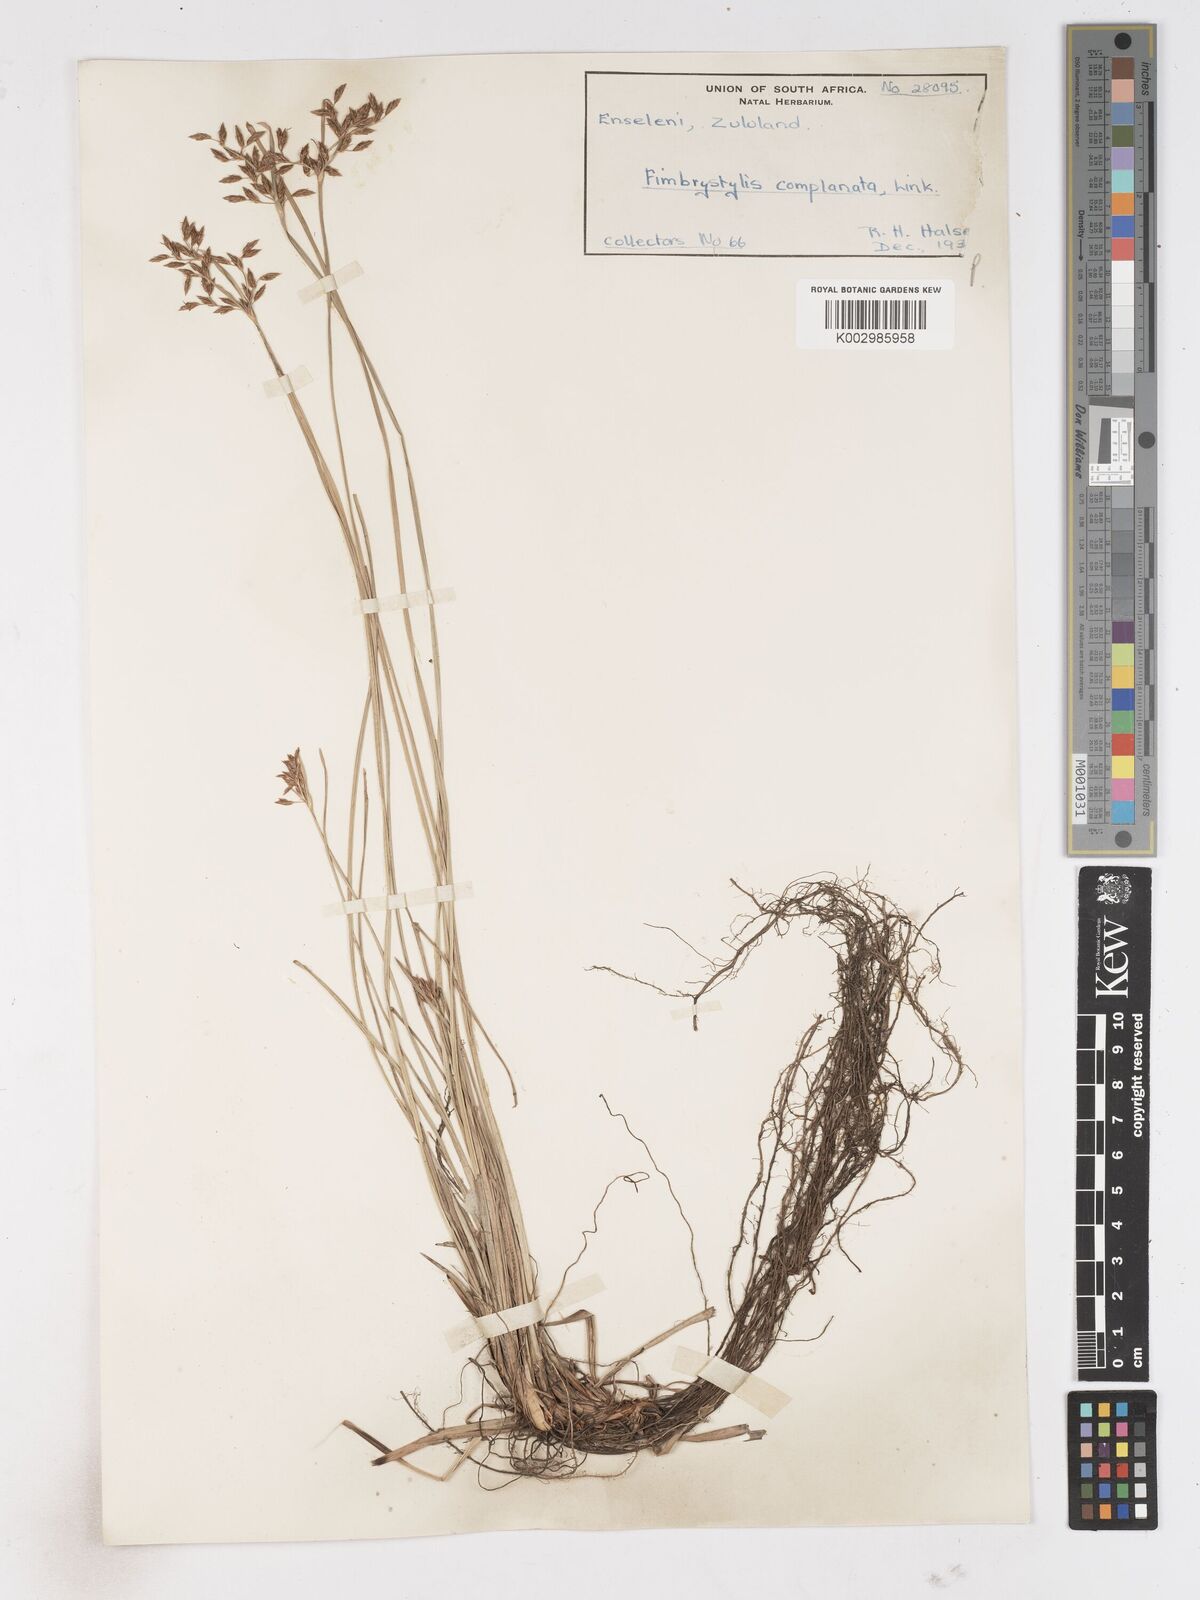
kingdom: Plantae
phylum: Tracheophyta
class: Liliopsida
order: Poales
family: Cyperaceae
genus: Fimbristylis
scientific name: Fimbristylis complanata
